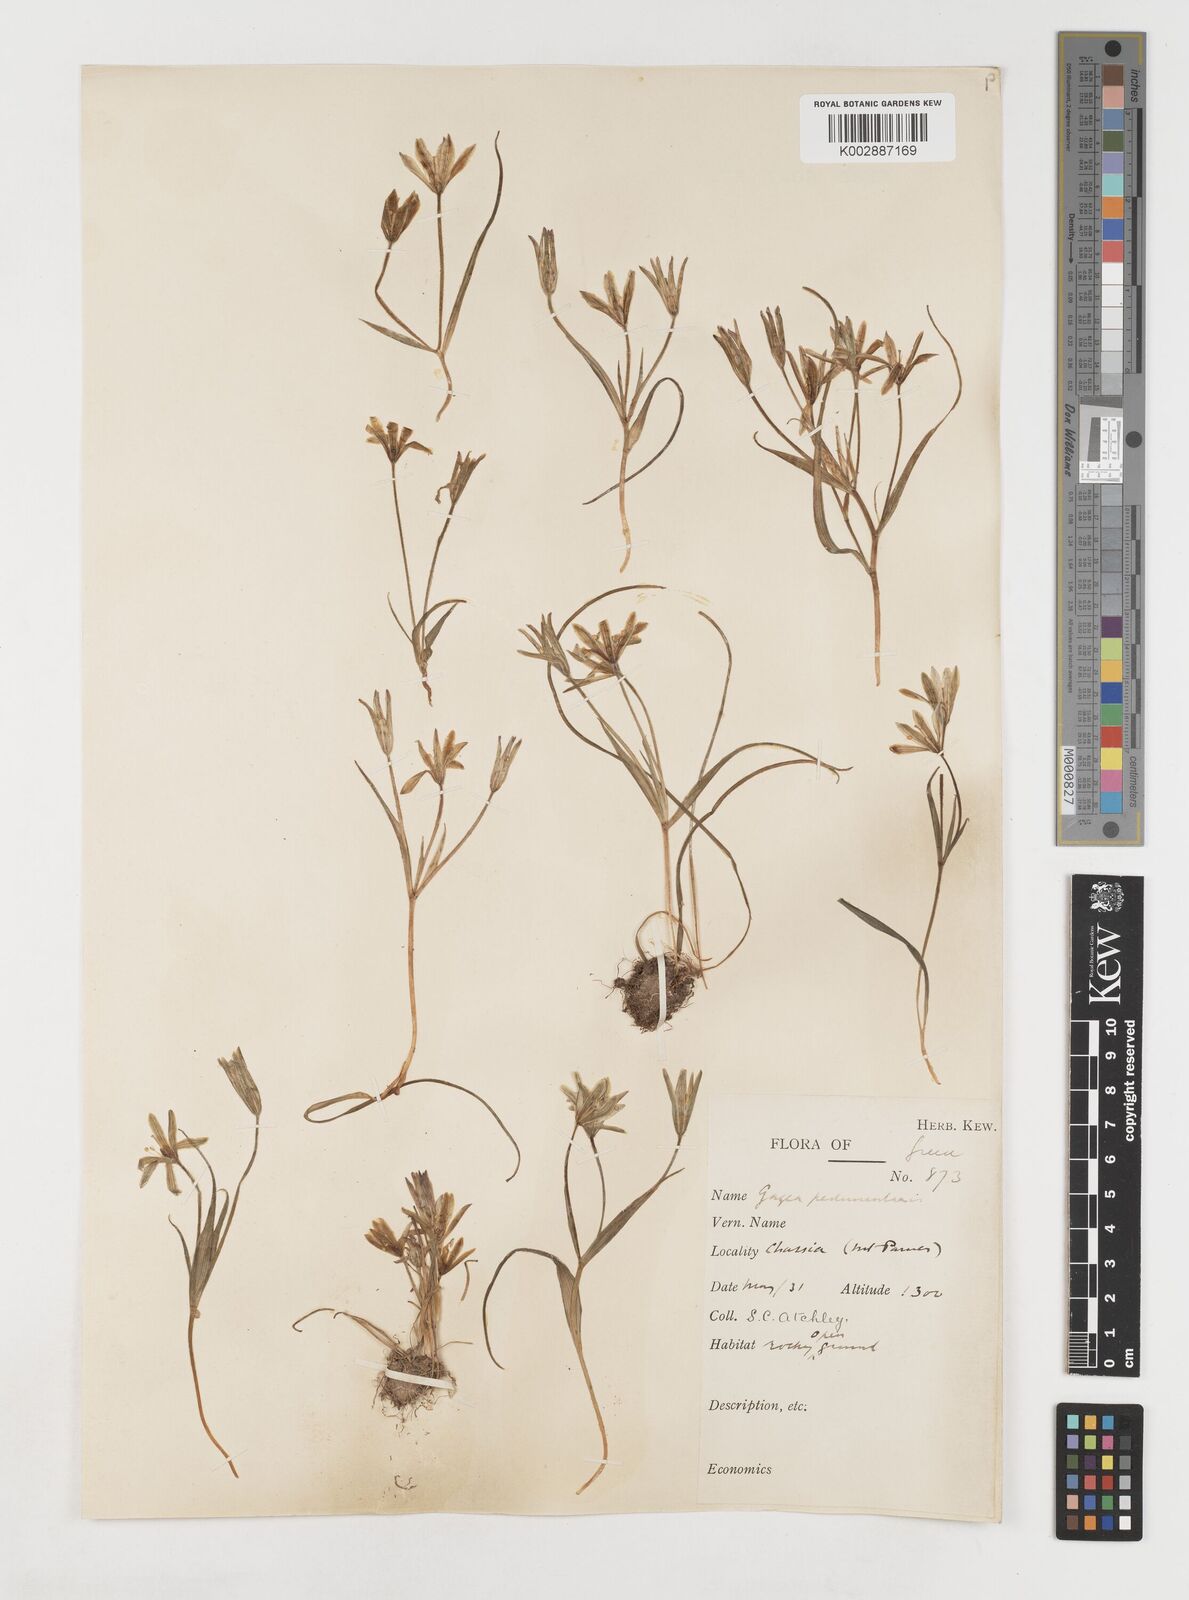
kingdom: Plantae
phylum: Tracheophyta
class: Liliopsida
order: Liliales
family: Liliaceae
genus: Gagea
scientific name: Gagea peduncularis
